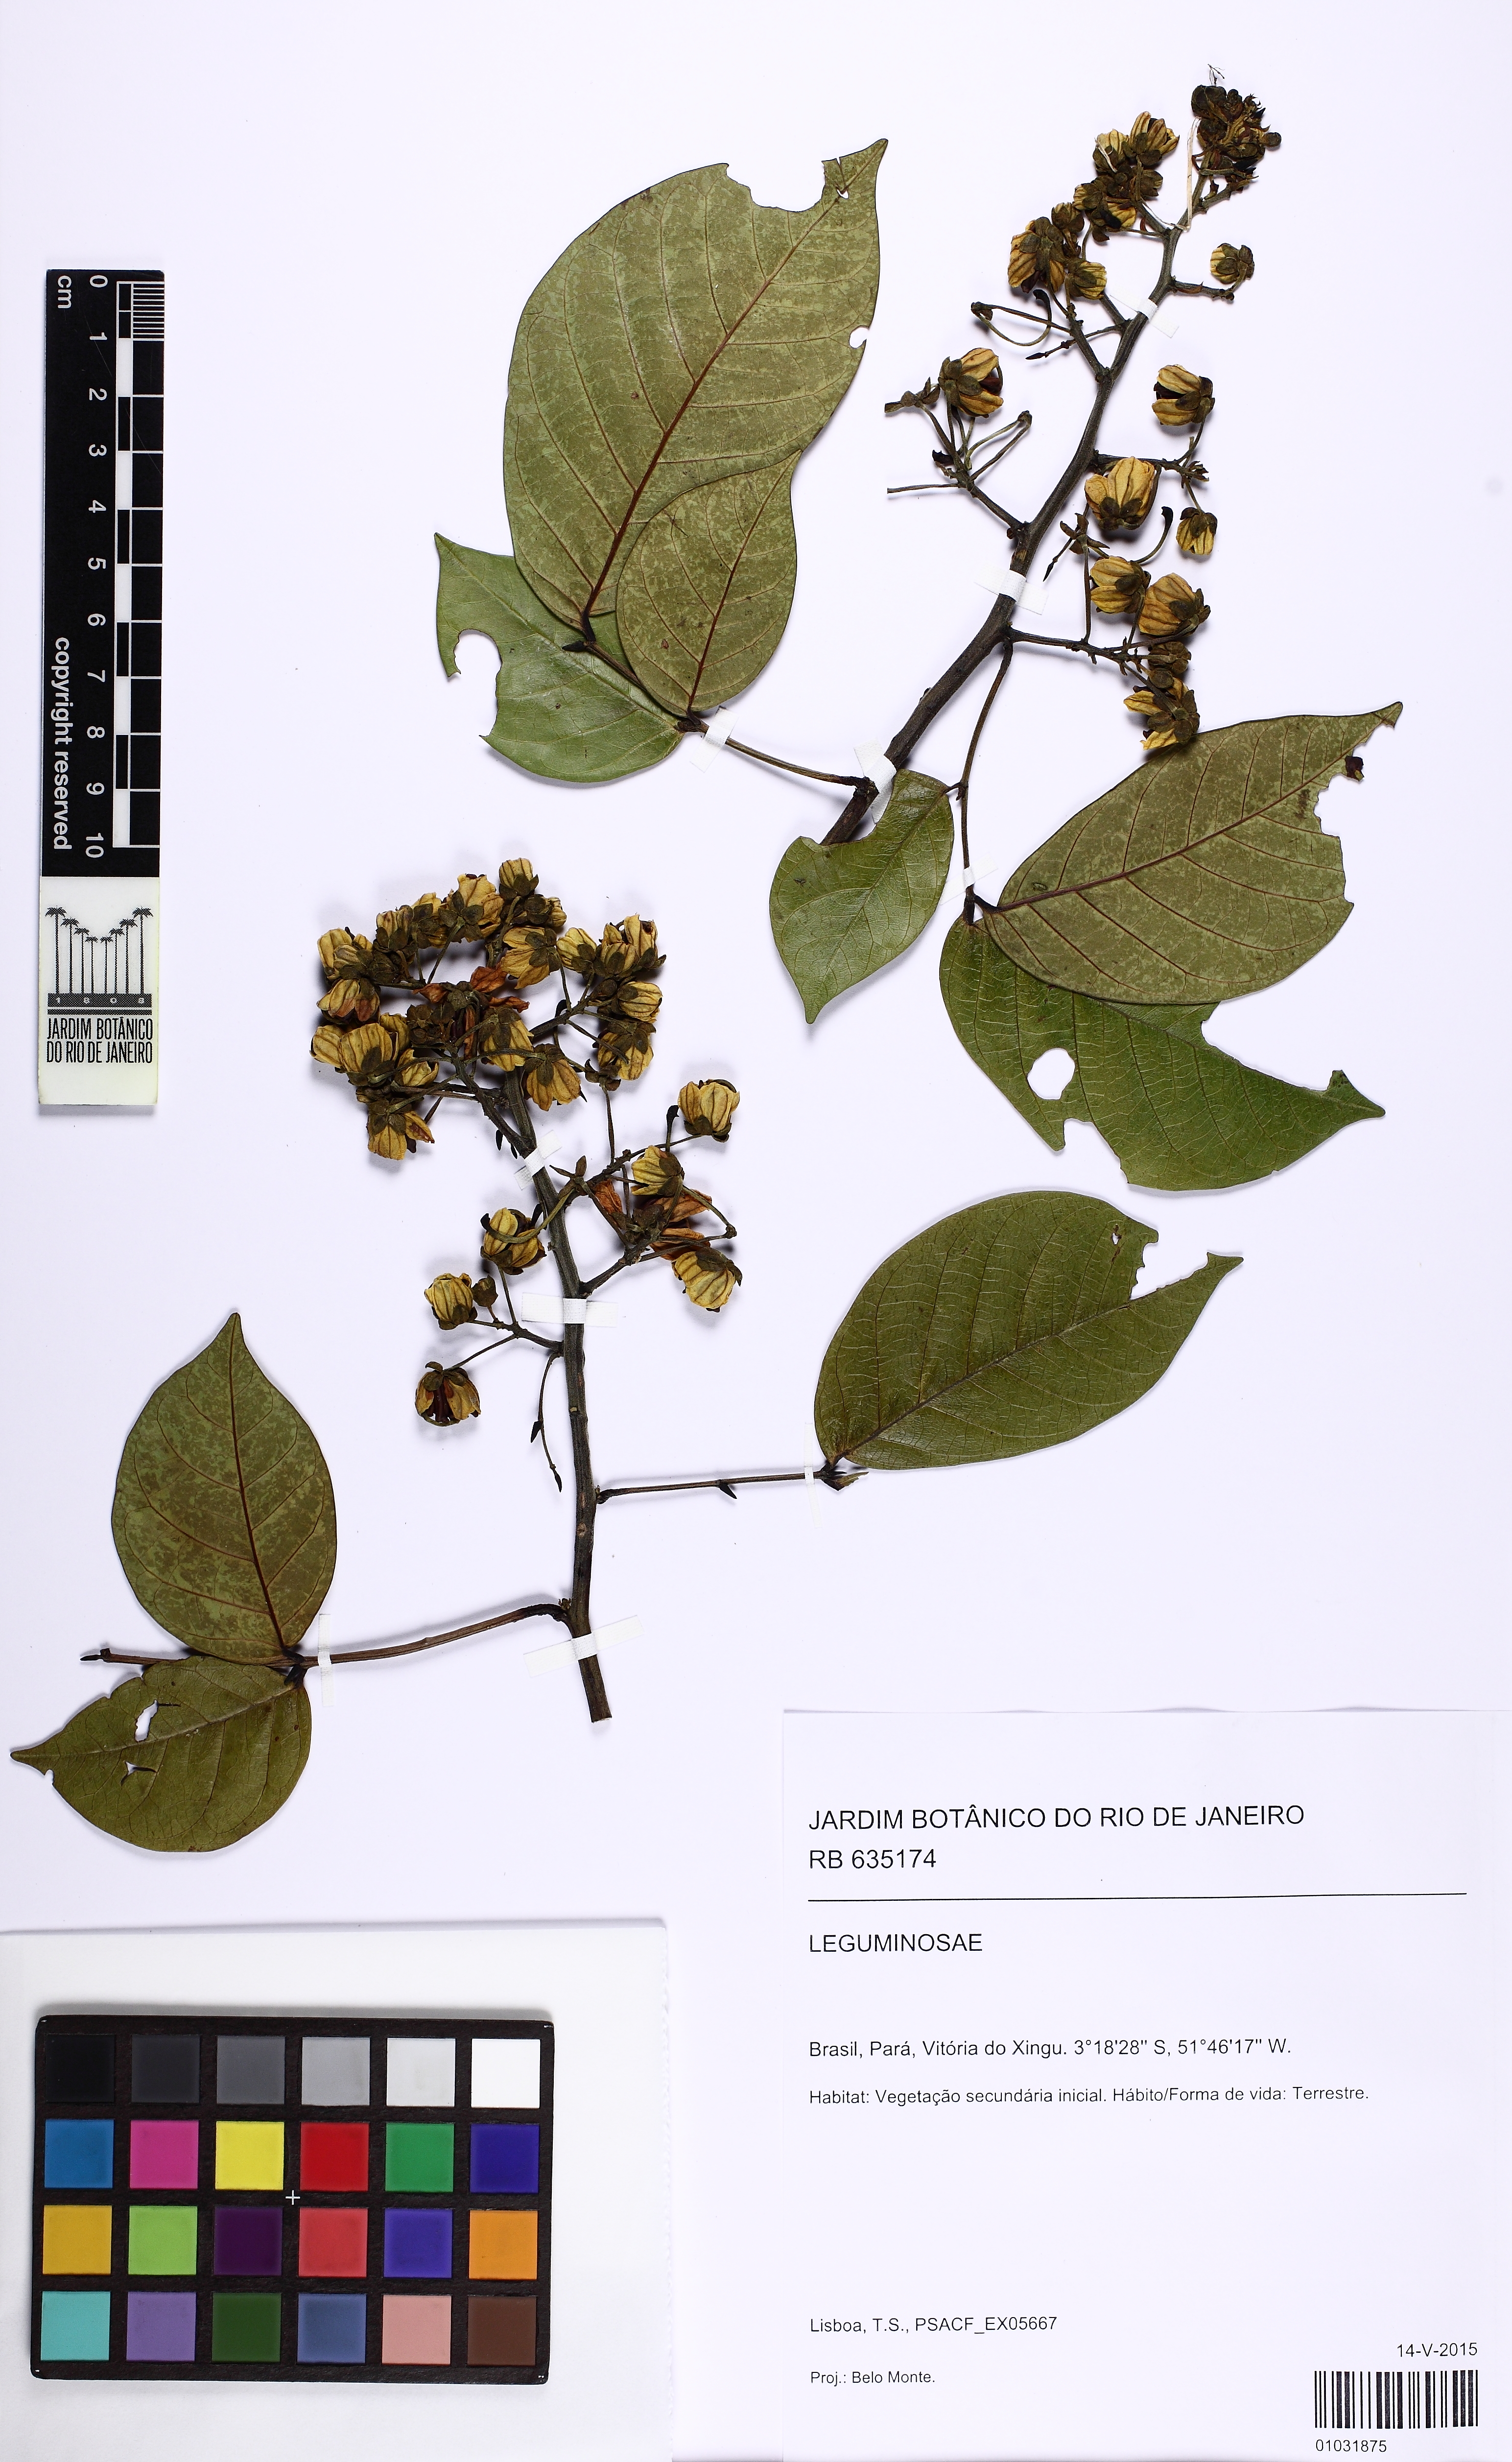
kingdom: Plantae
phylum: Tracheophyta
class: Magnoliopsida
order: Fabales
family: Fabaceae
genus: Senna
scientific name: Senna quinquangulata
